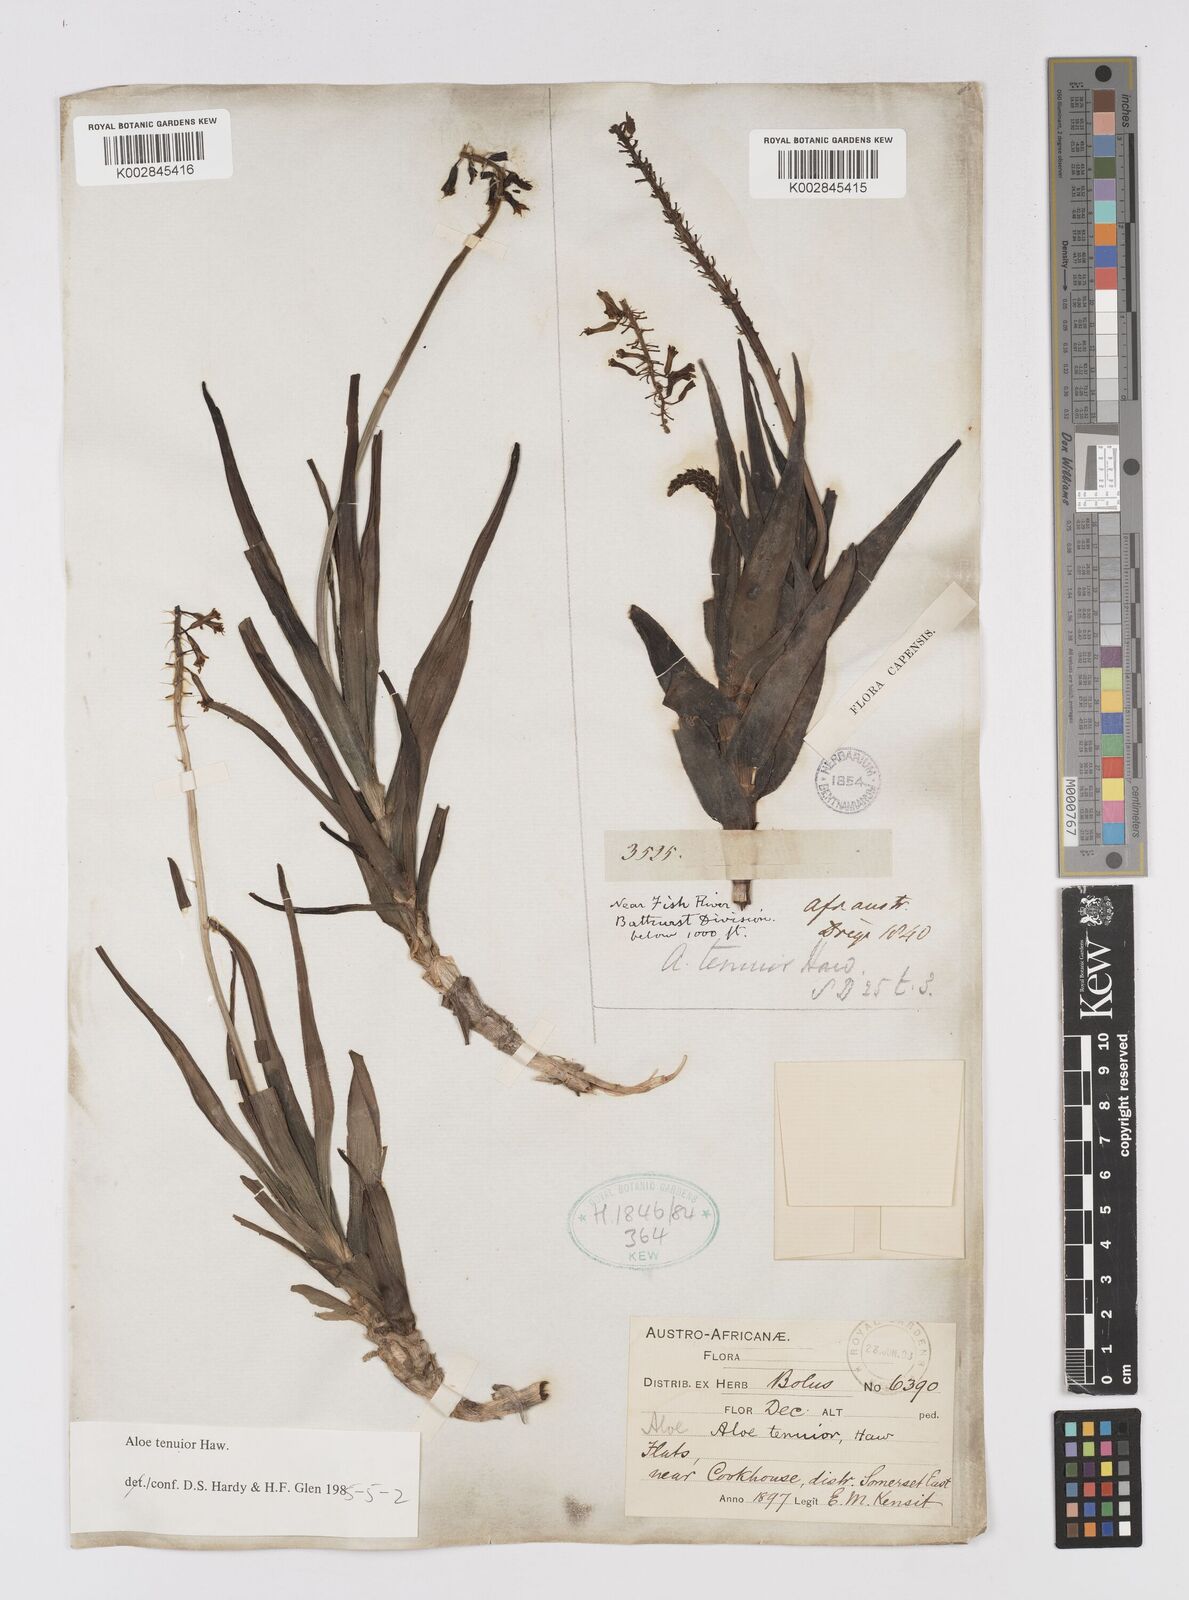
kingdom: Plantae
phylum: Tracheophyta
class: Liliopsida
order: Asparagales
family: Asphodelaceae
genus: Aloiampelos
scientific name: Aloiampelos tenuior
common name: Fence aloe
